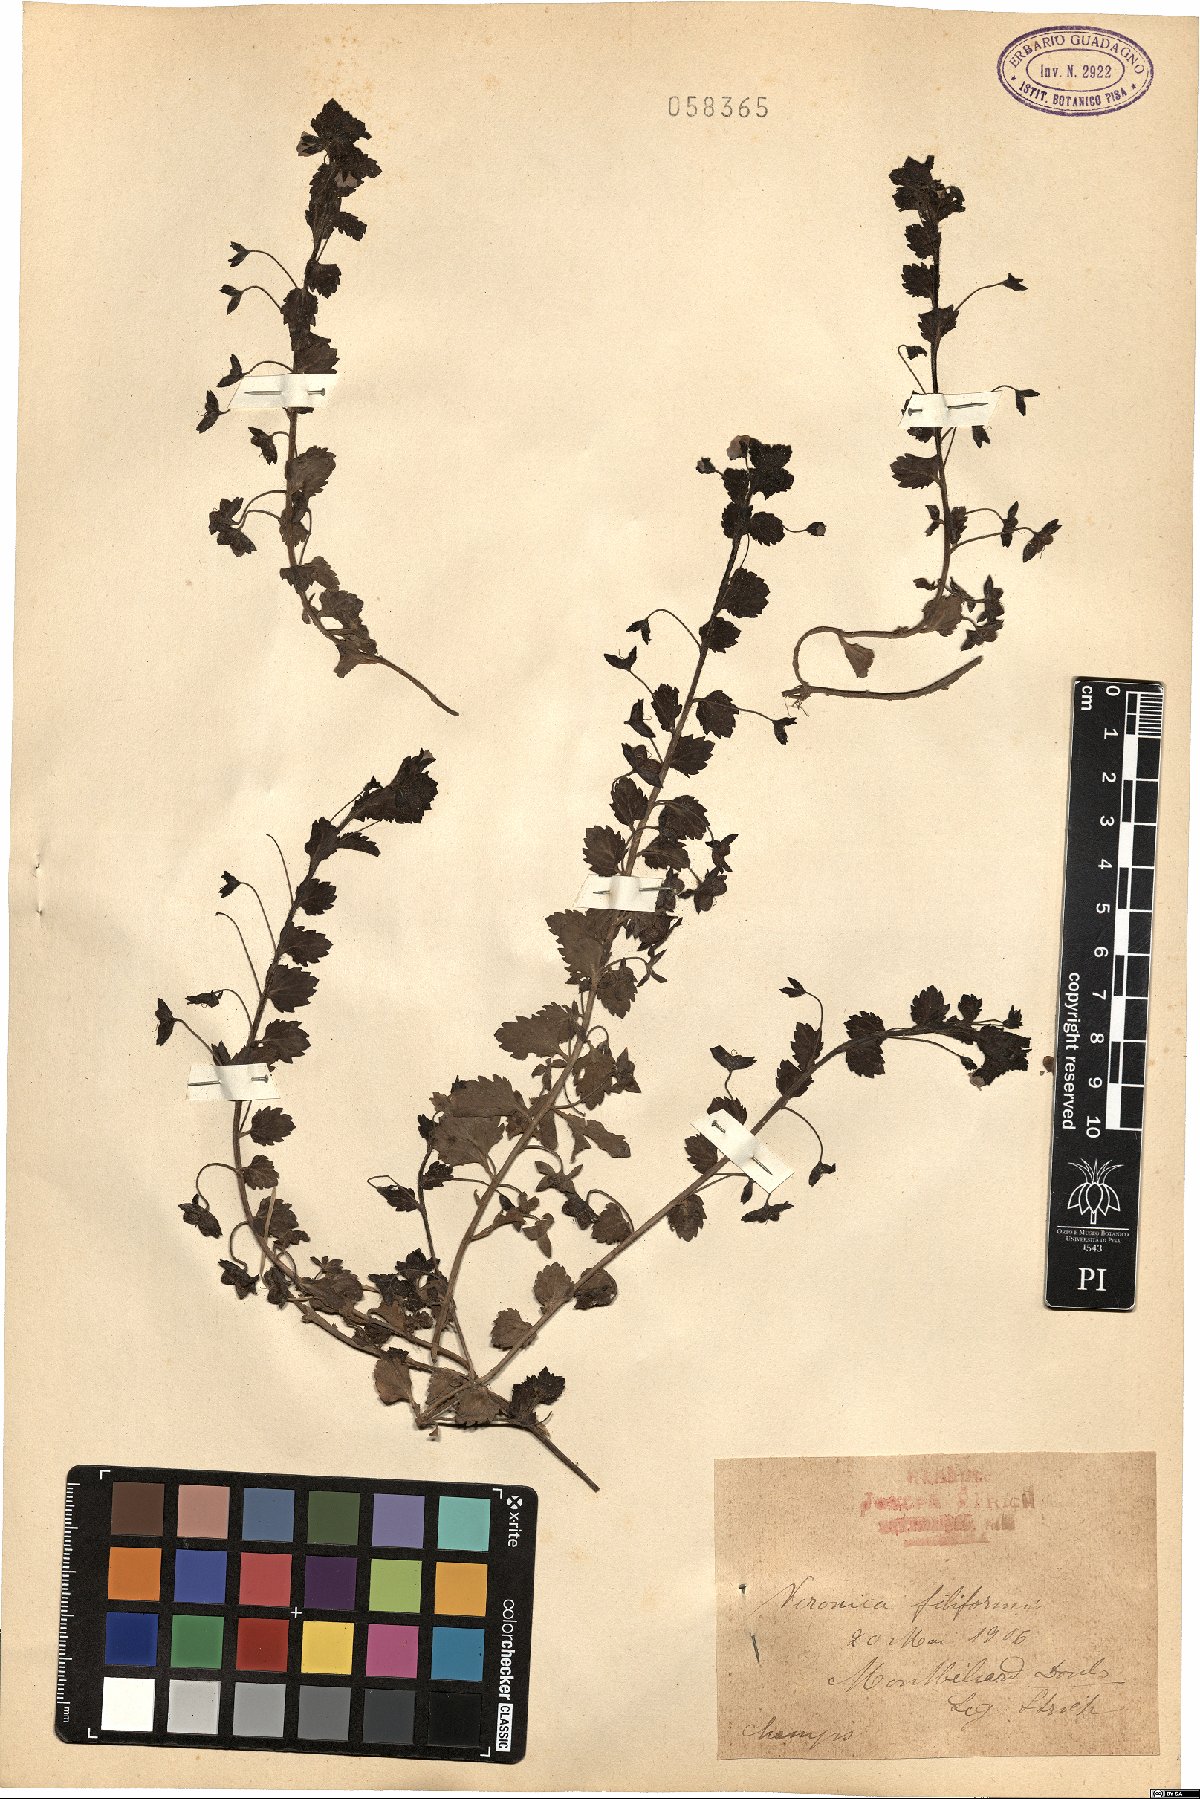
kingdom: Plantae
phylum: Tracheophyta
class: Magnoliopsida
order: Lamiales
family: Plantaginaceae
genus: Veronica
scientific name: Veronica filiformis
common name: Slender speedwell
